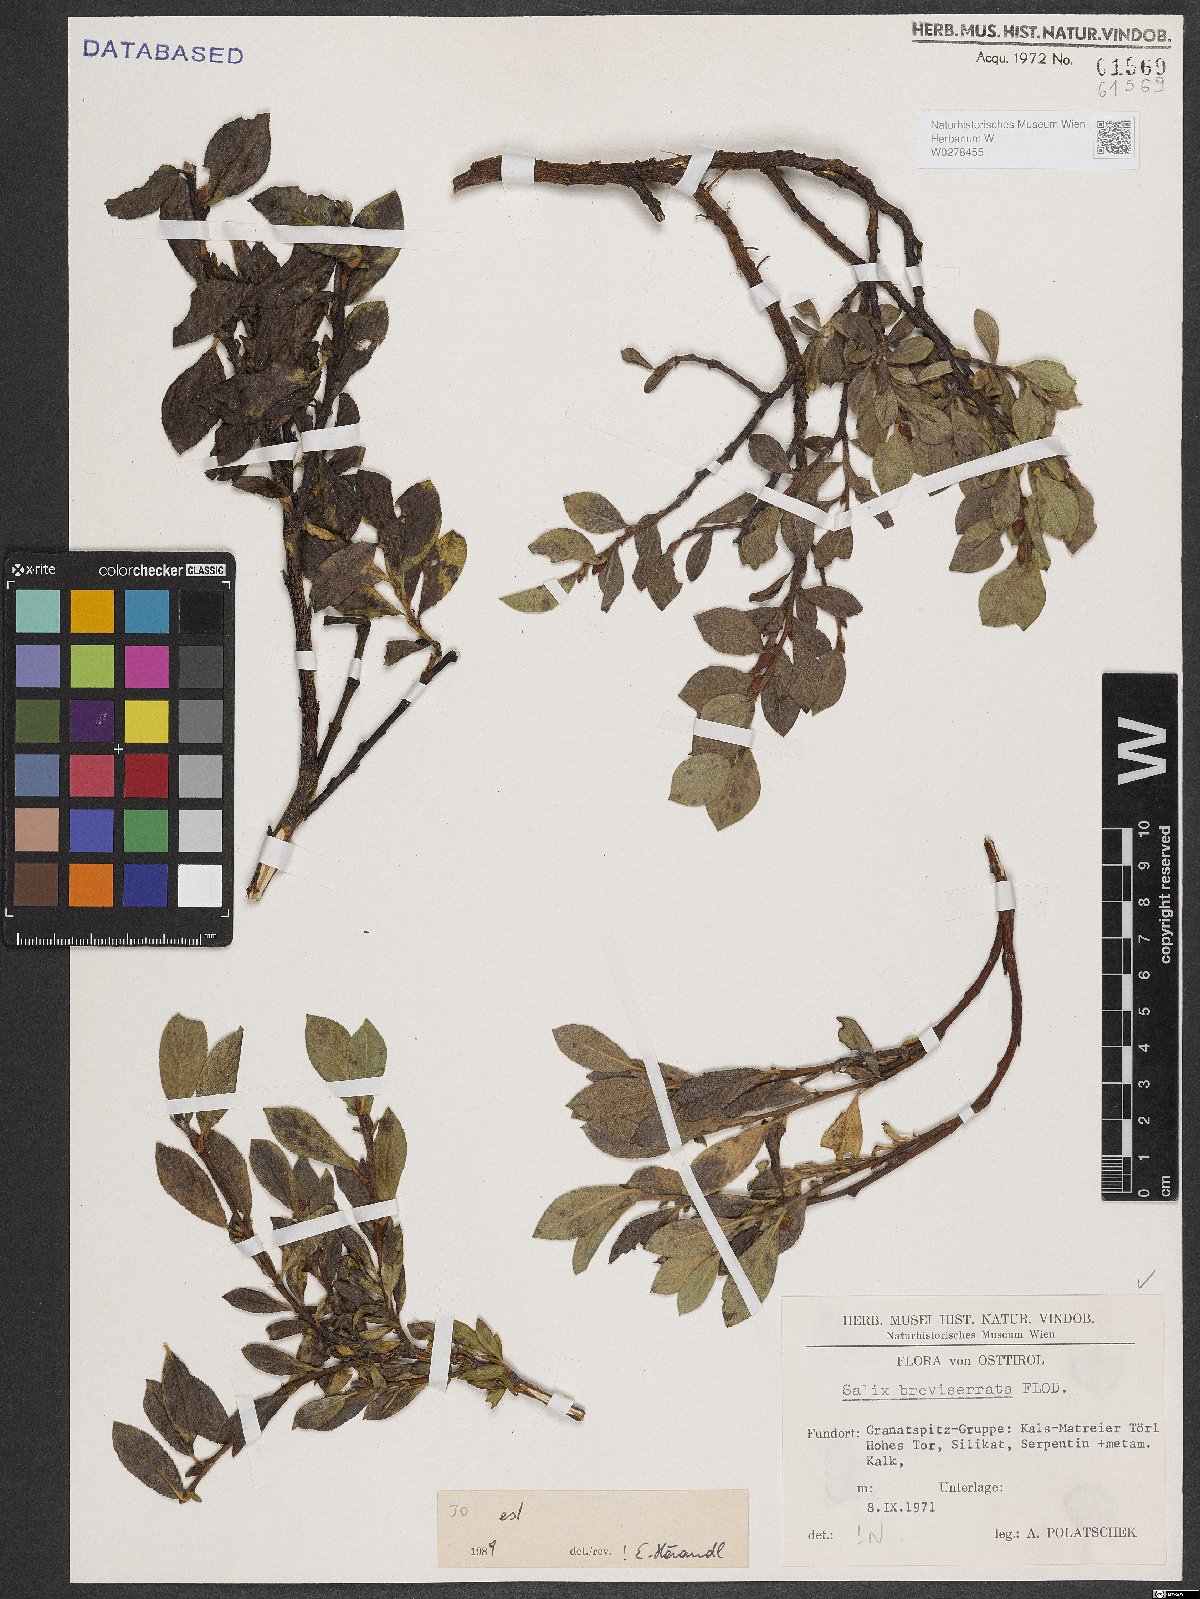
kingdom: Plantae
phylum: Tracheophyta
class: Magnoliopsida
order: Malpighiales
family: Salicaceae
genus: Salix
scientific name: Salix breviserrata
